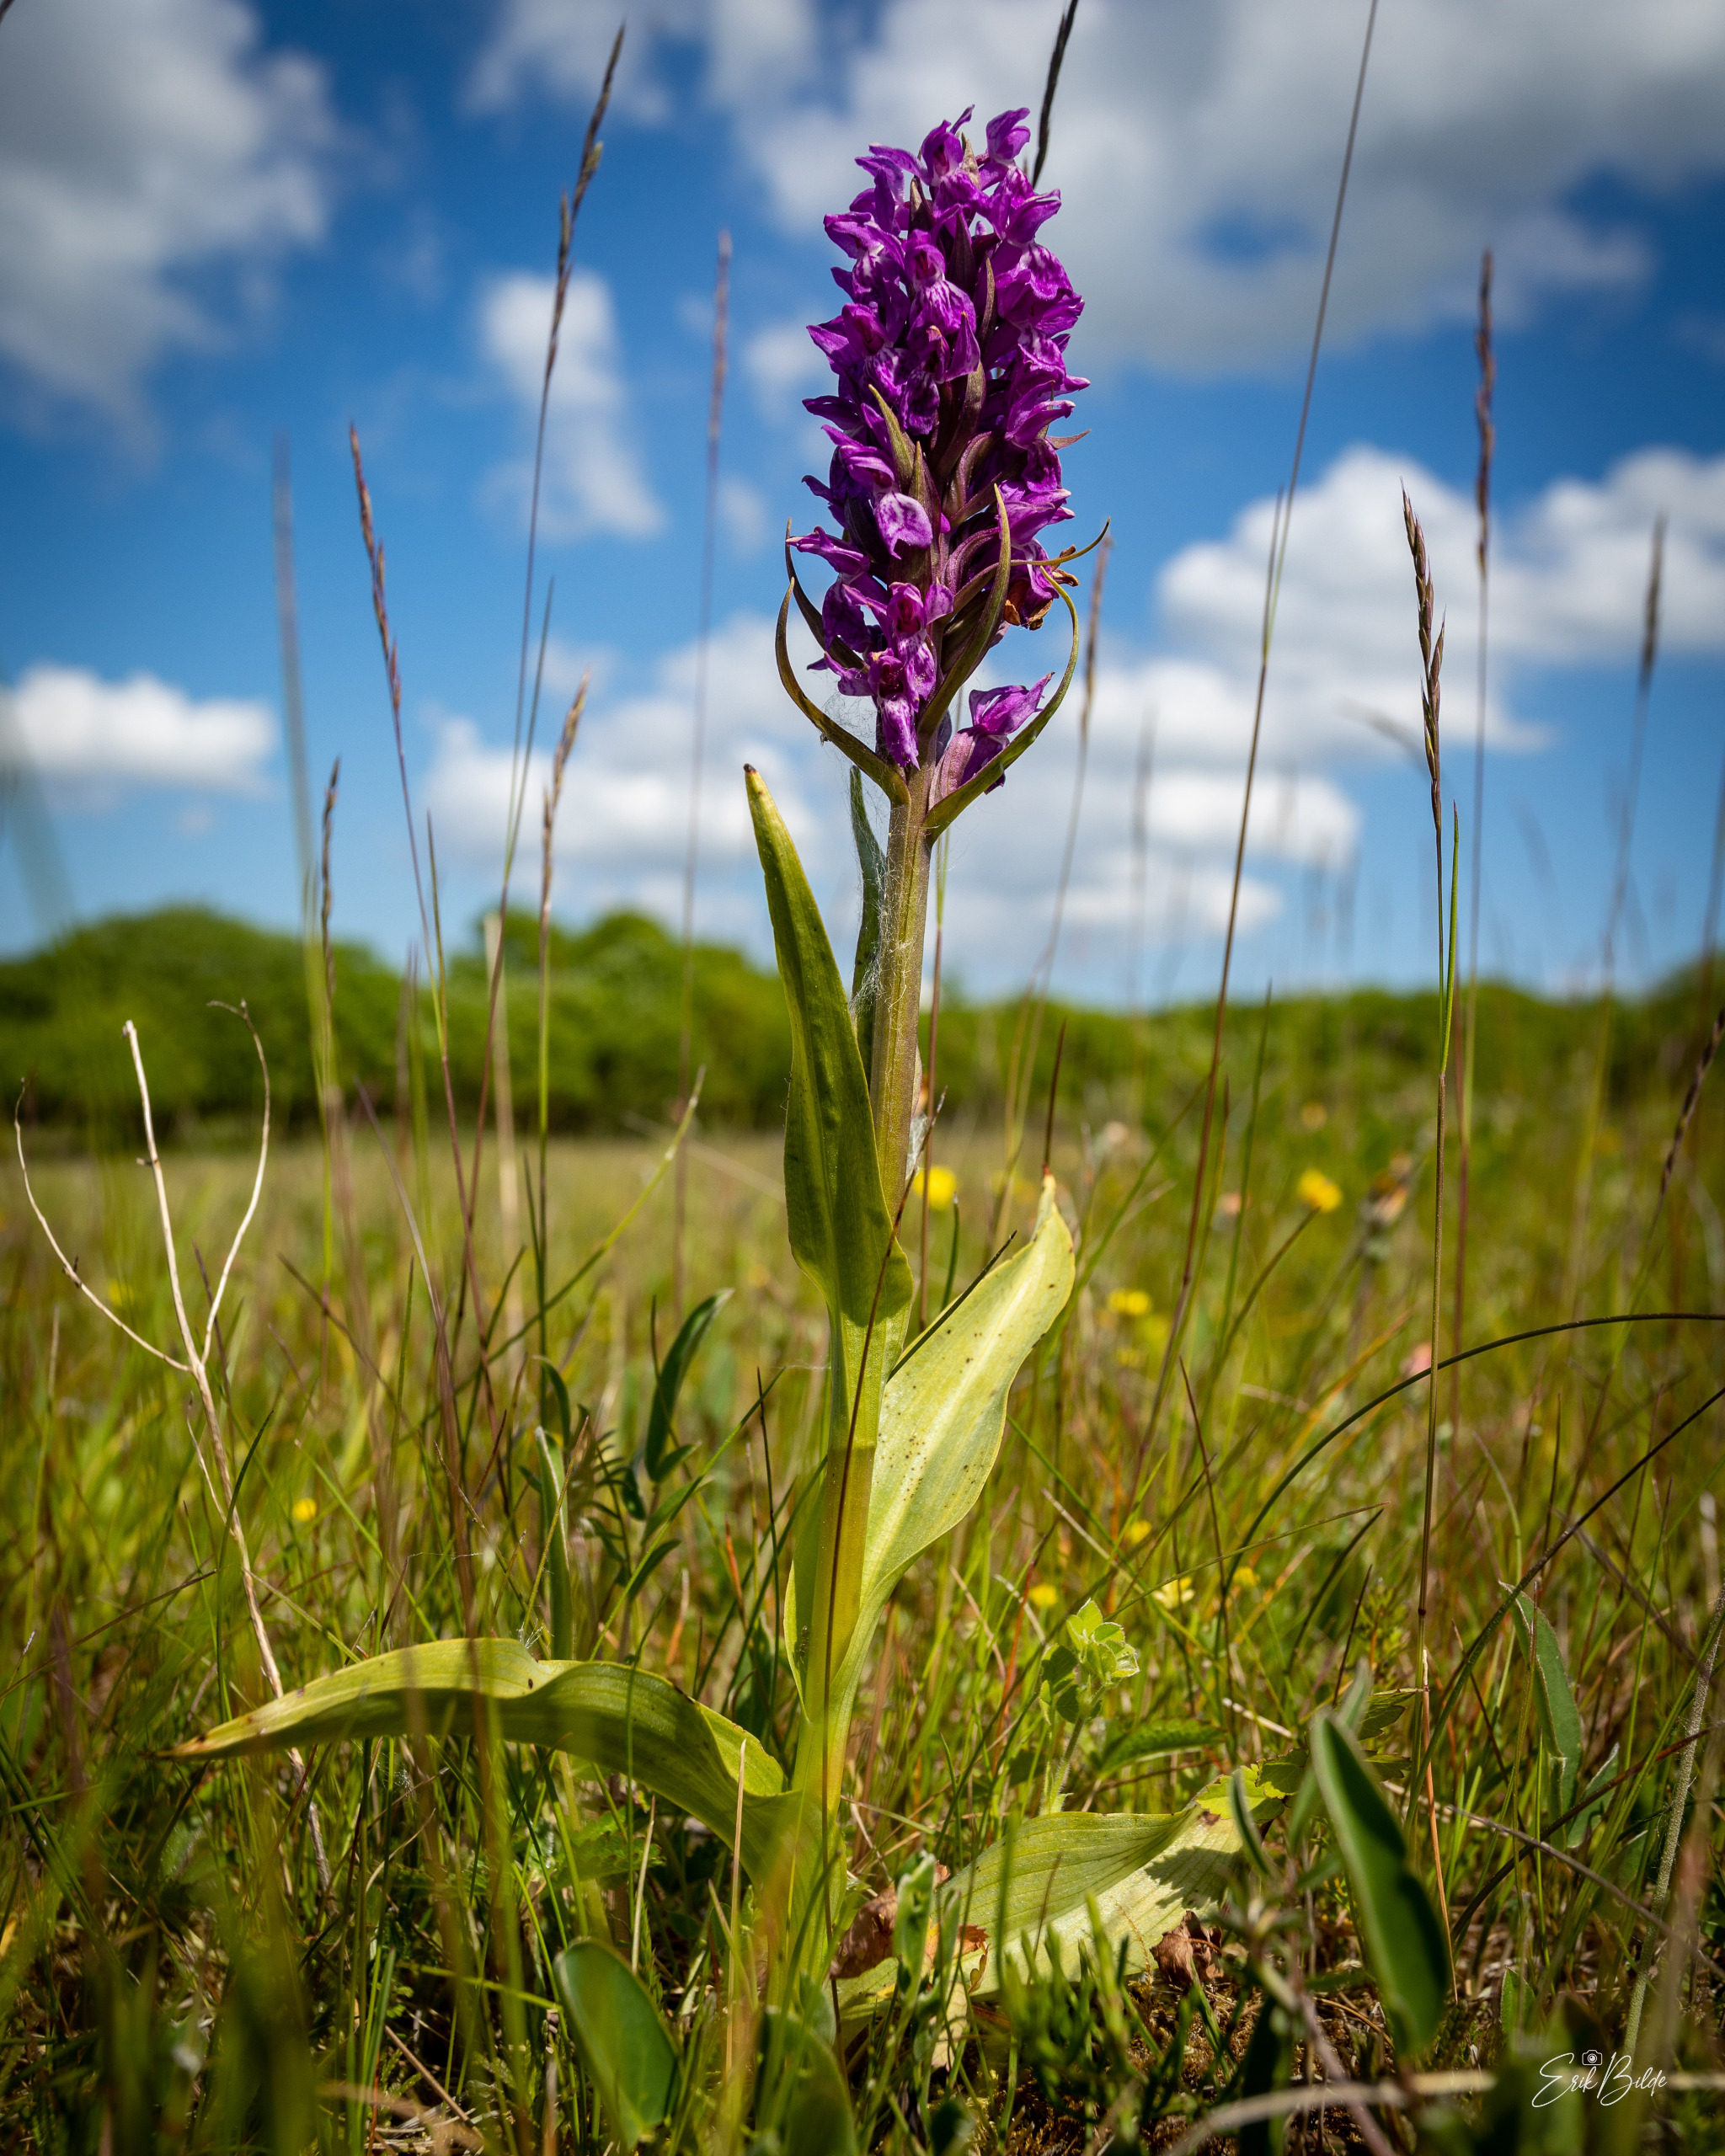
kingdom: Plantae
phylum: Tracheophyta
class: Liliopsida
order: Asparagales
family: Orchidaceae
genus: Dactylorhiza
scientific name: Dactylorhiza majalis
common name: Maj-gøgeurt
